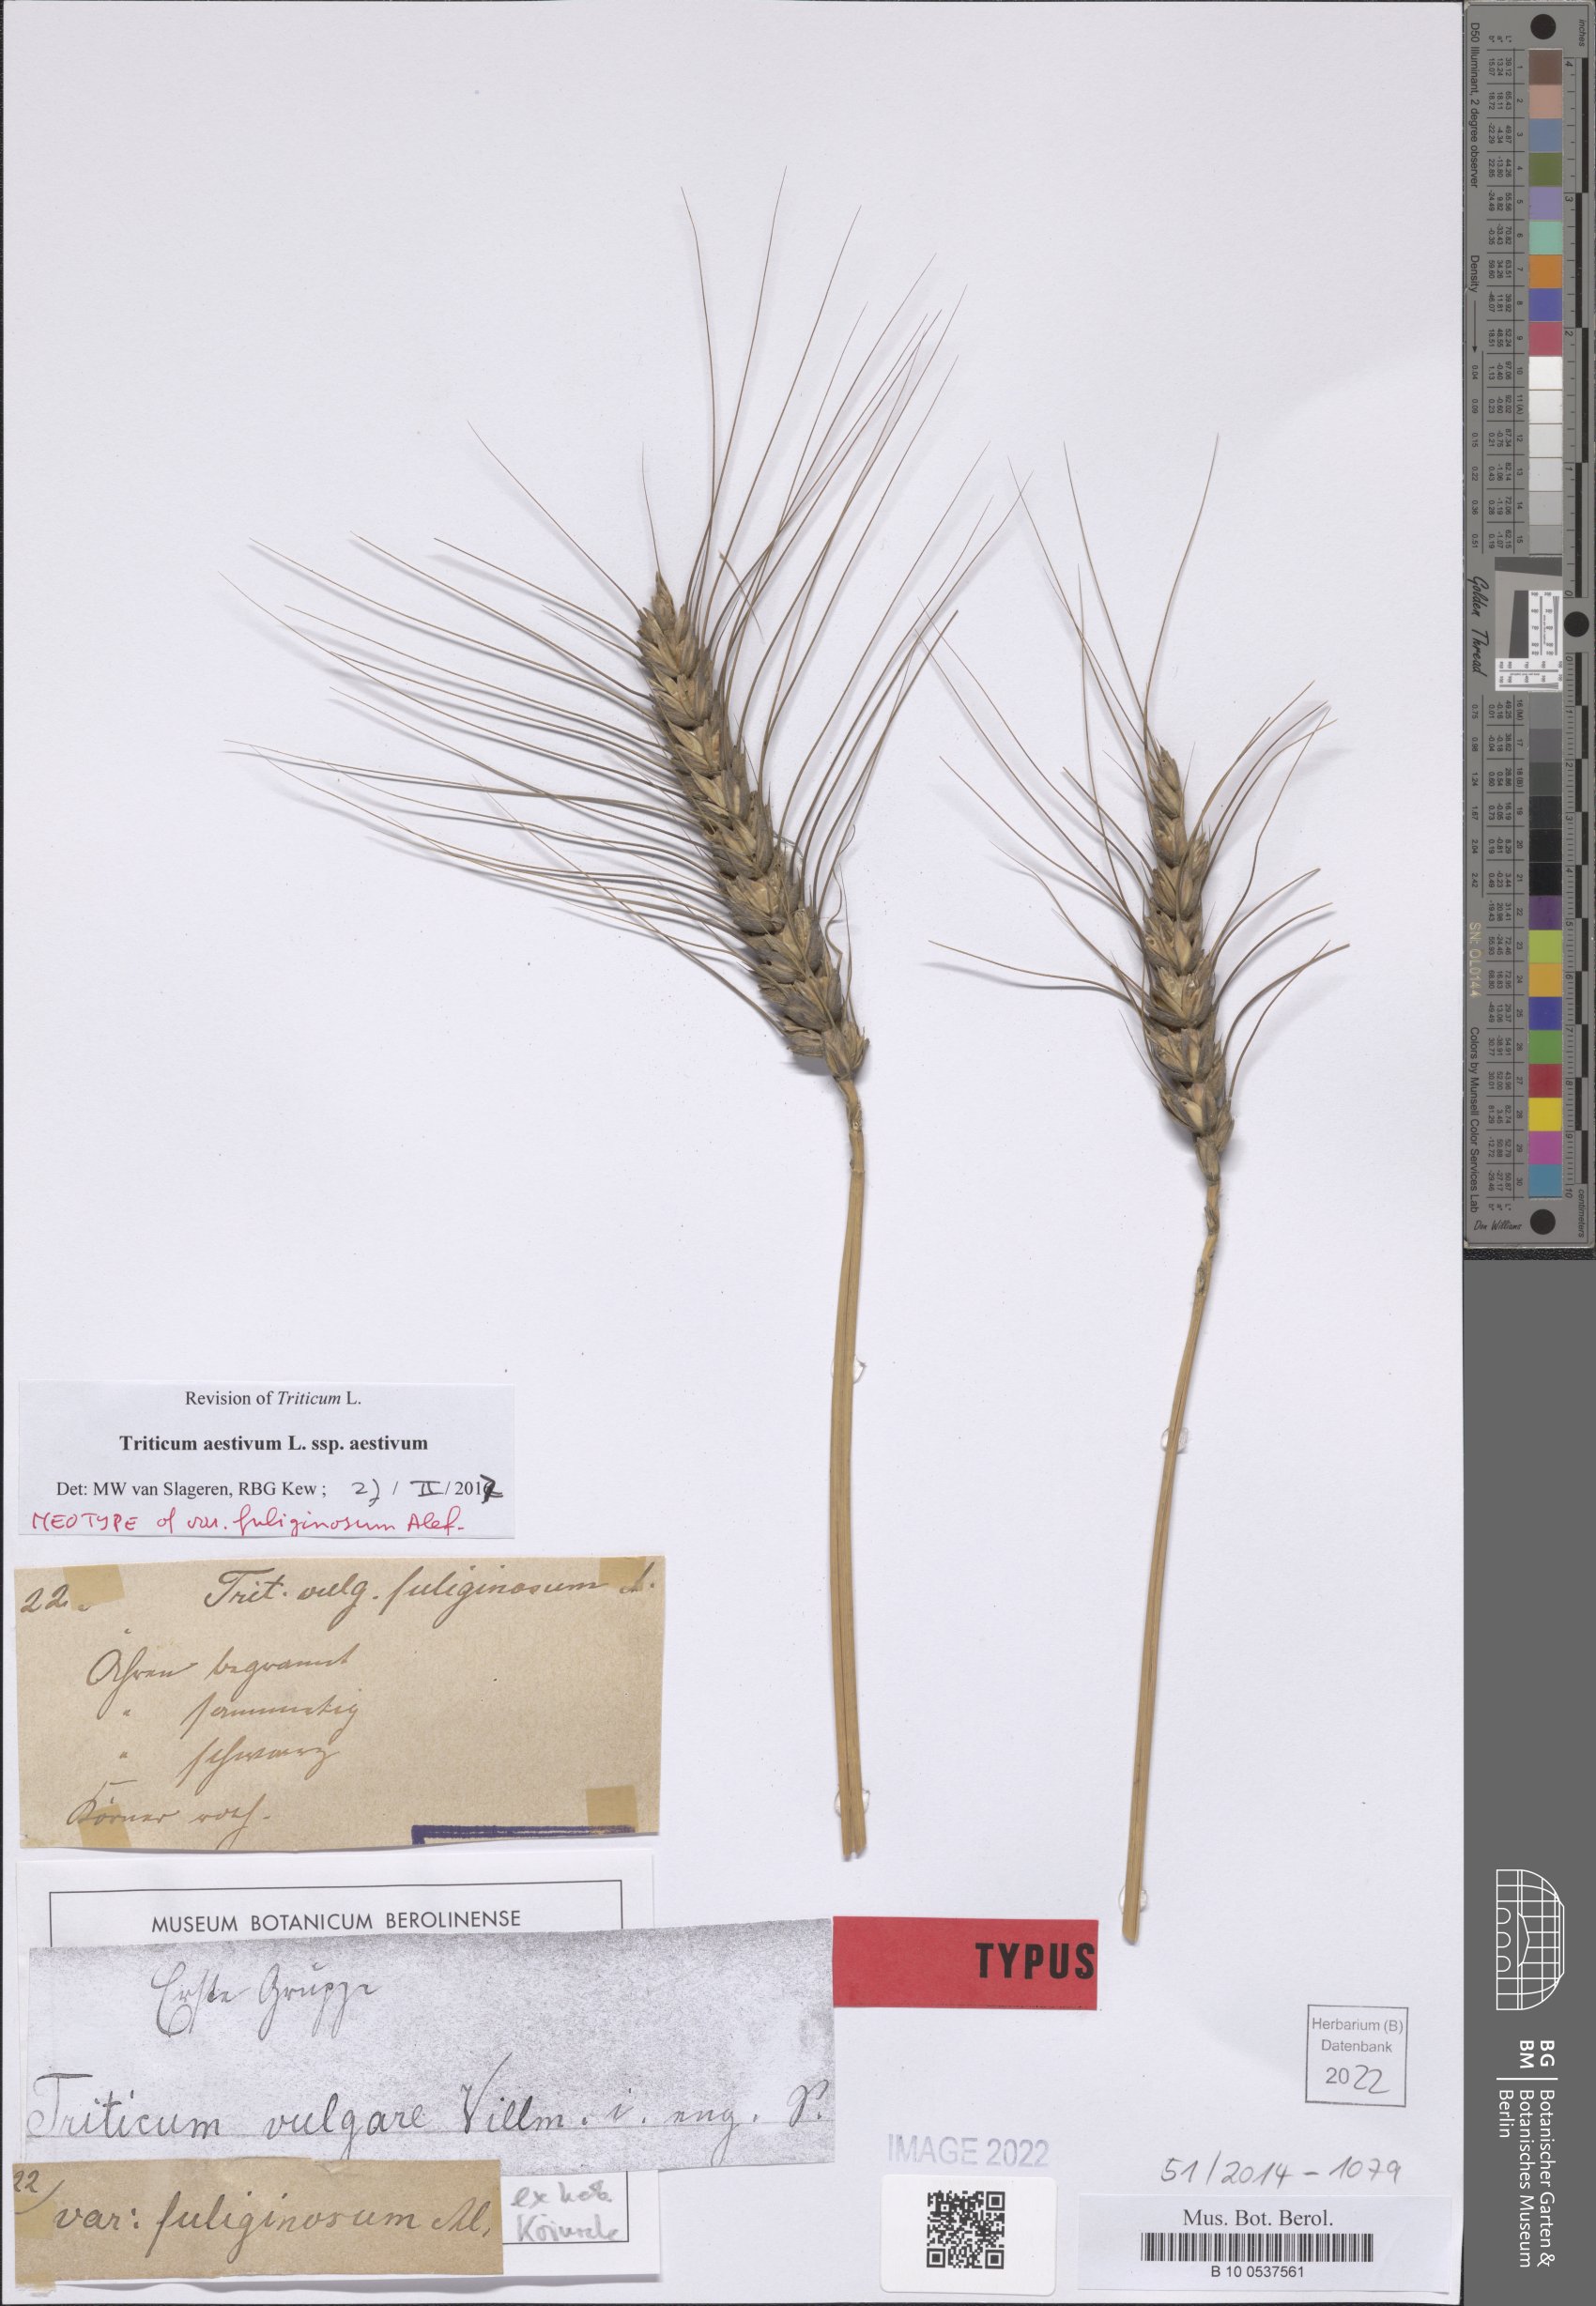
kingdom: Plantae
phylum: Tracheophyta
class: Liliopsida
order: Poales
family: Poaceae
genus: Triticum
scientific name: Triticum aestivum
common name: Common wheat
